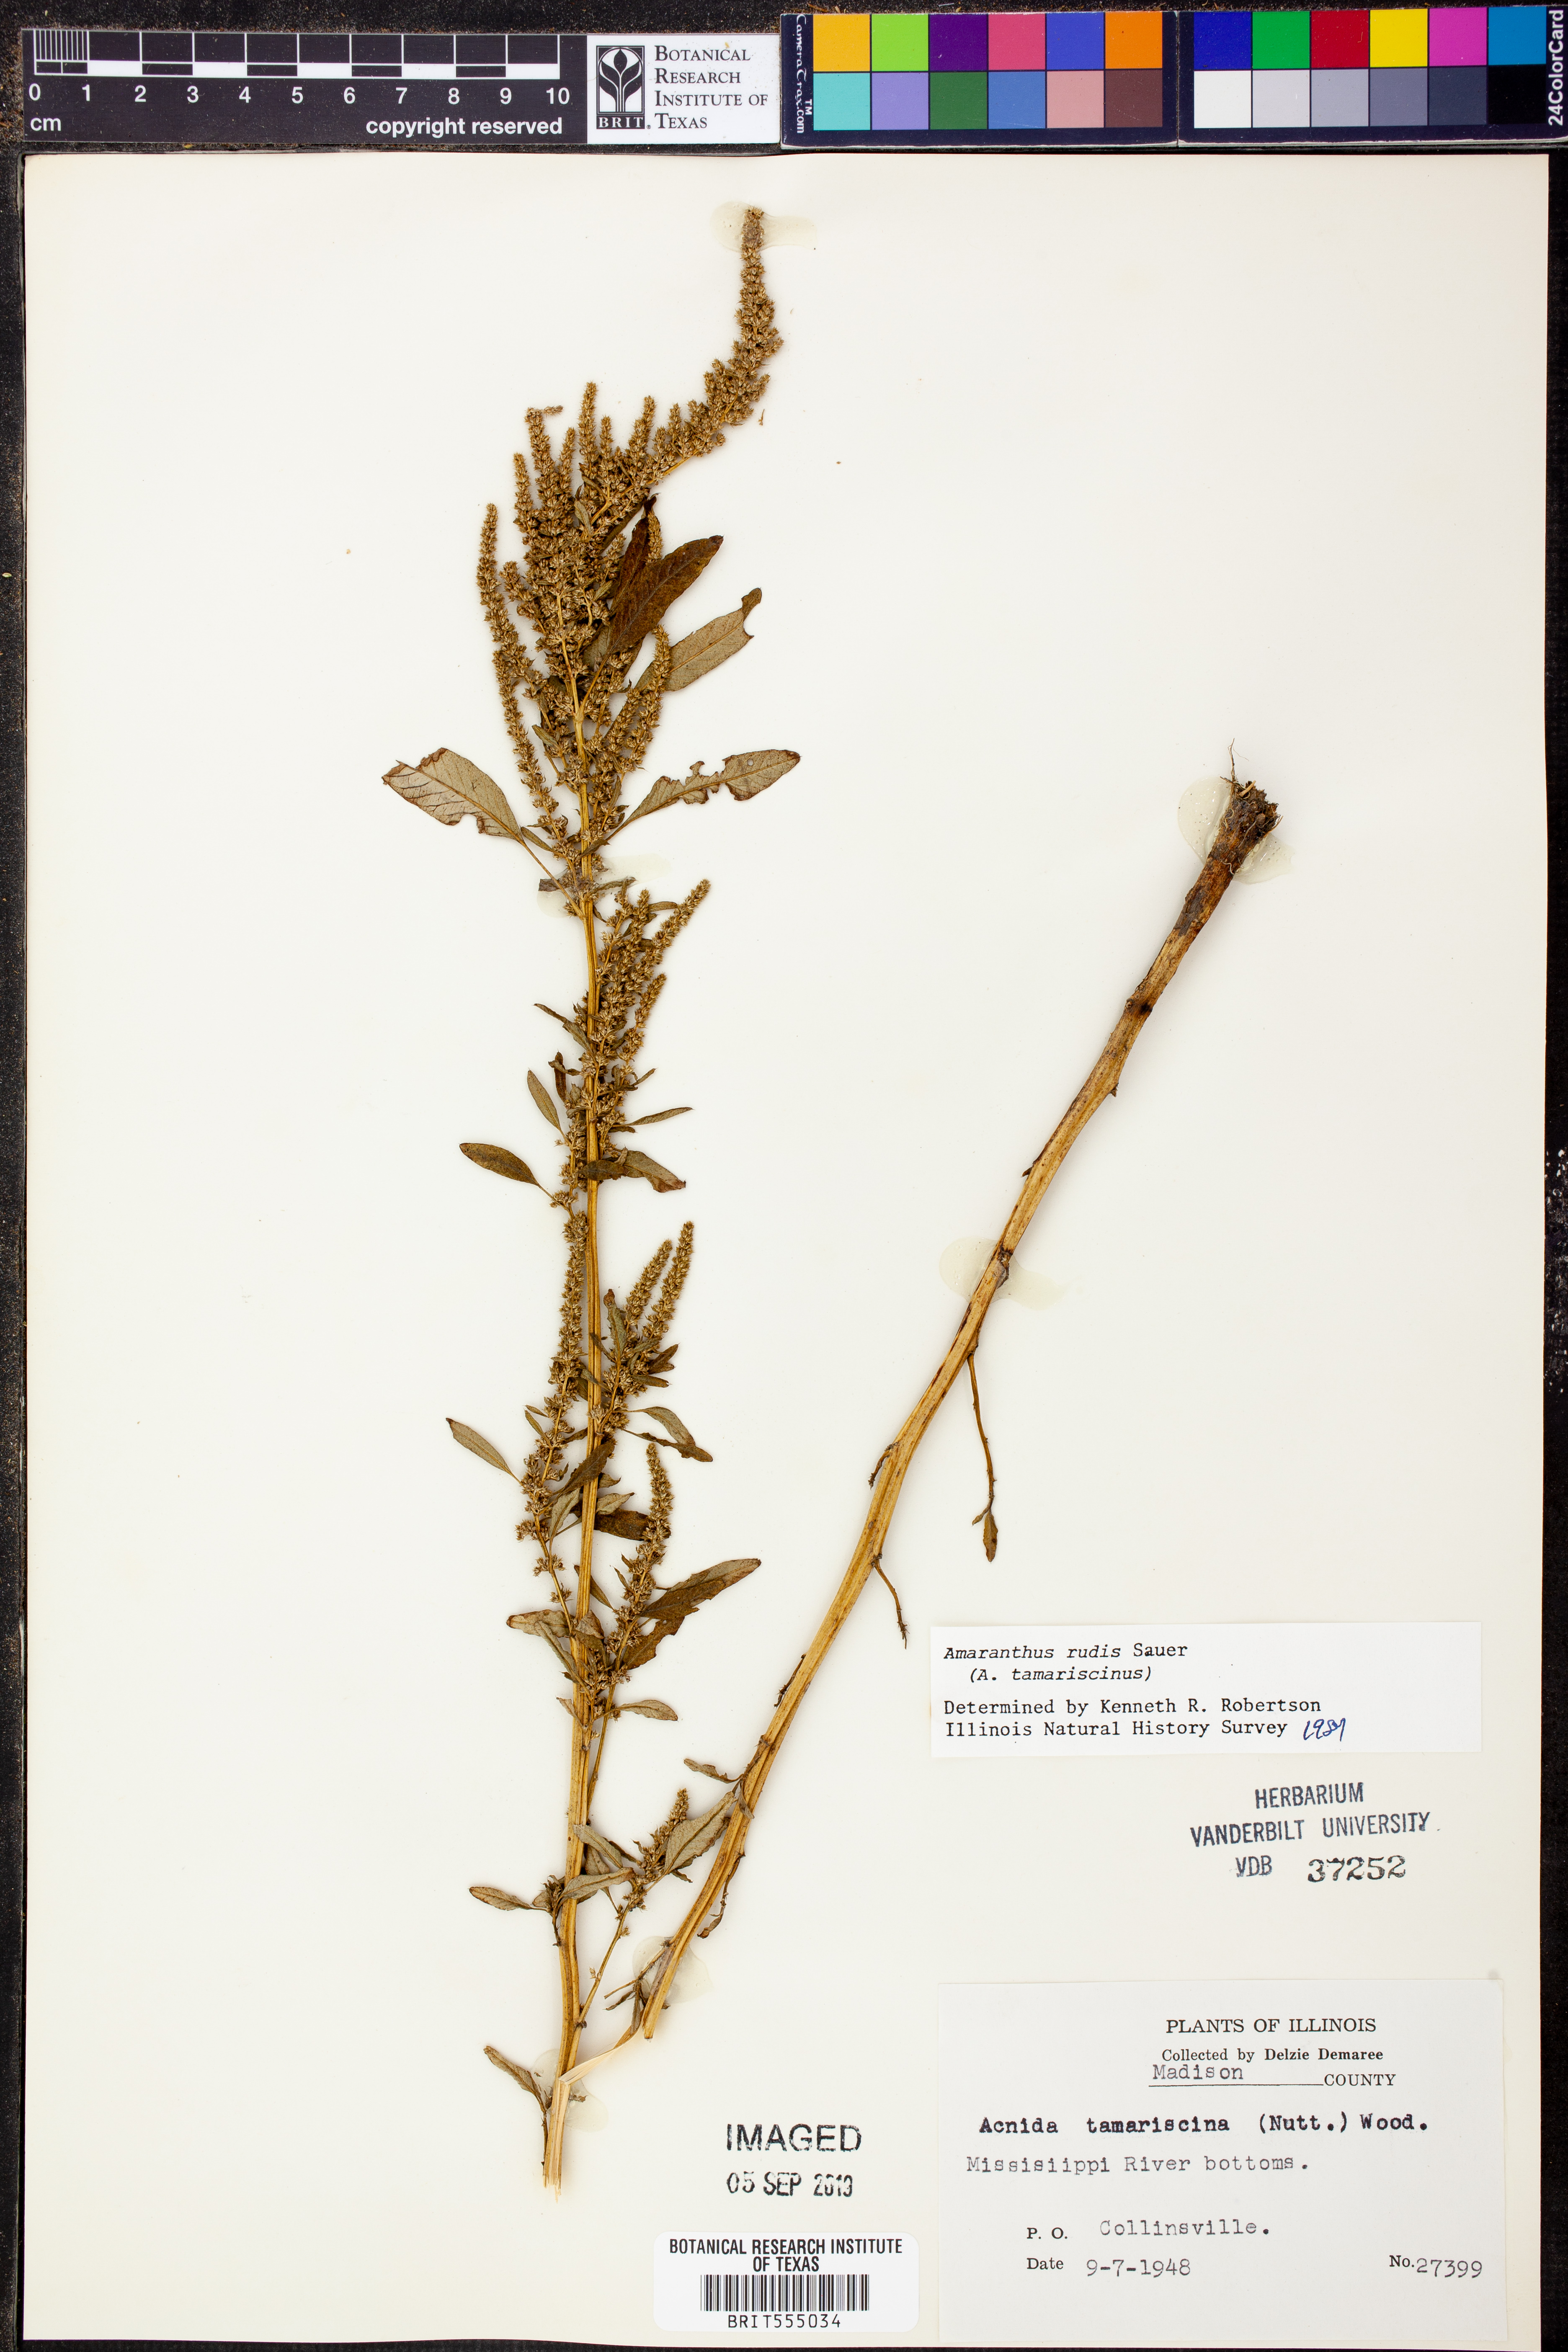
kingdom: Plantae
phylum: Tracheophyta
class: Magnoliopsida
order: Caryophyllales
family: Amaranthaceae
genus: Amaranthus
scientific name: Amaranthus tuberculatus
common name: Rough-fruit amaranth
